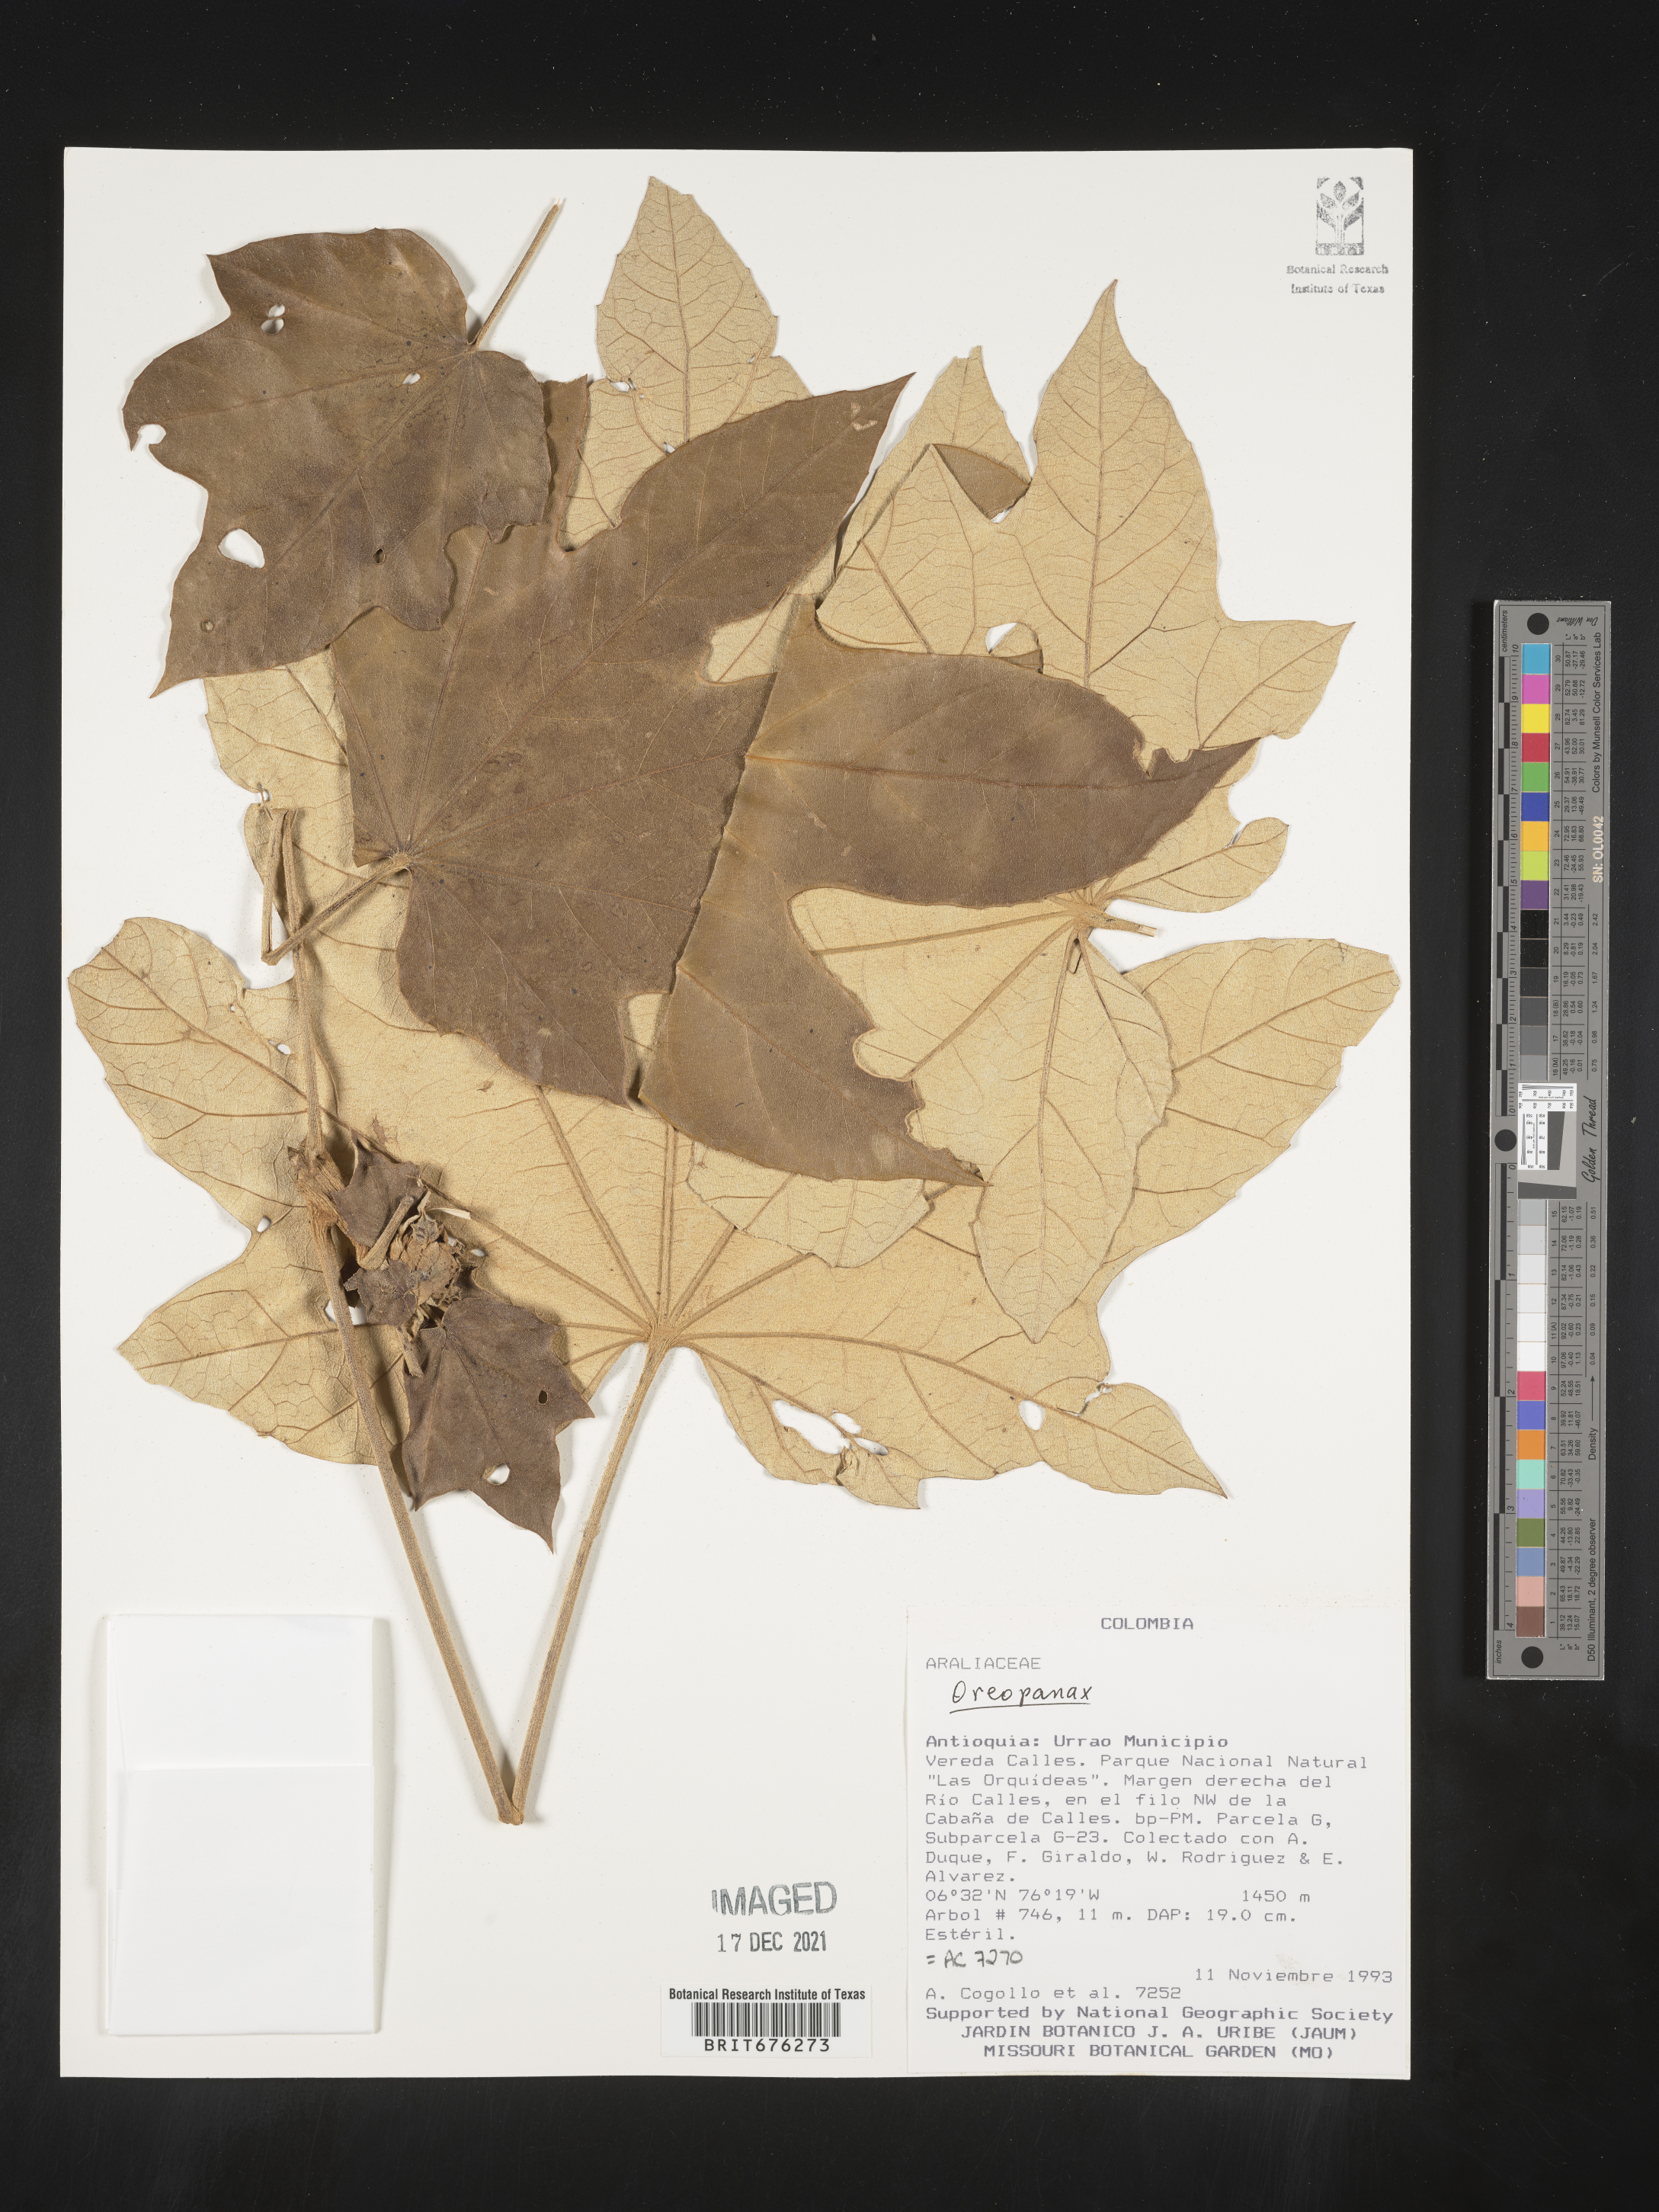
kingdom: Plantae
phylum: Tracheophyta
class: Magnoliopsida
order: Apiales
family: Araliaceae
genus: Oreopanax
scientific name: Oreopanax
